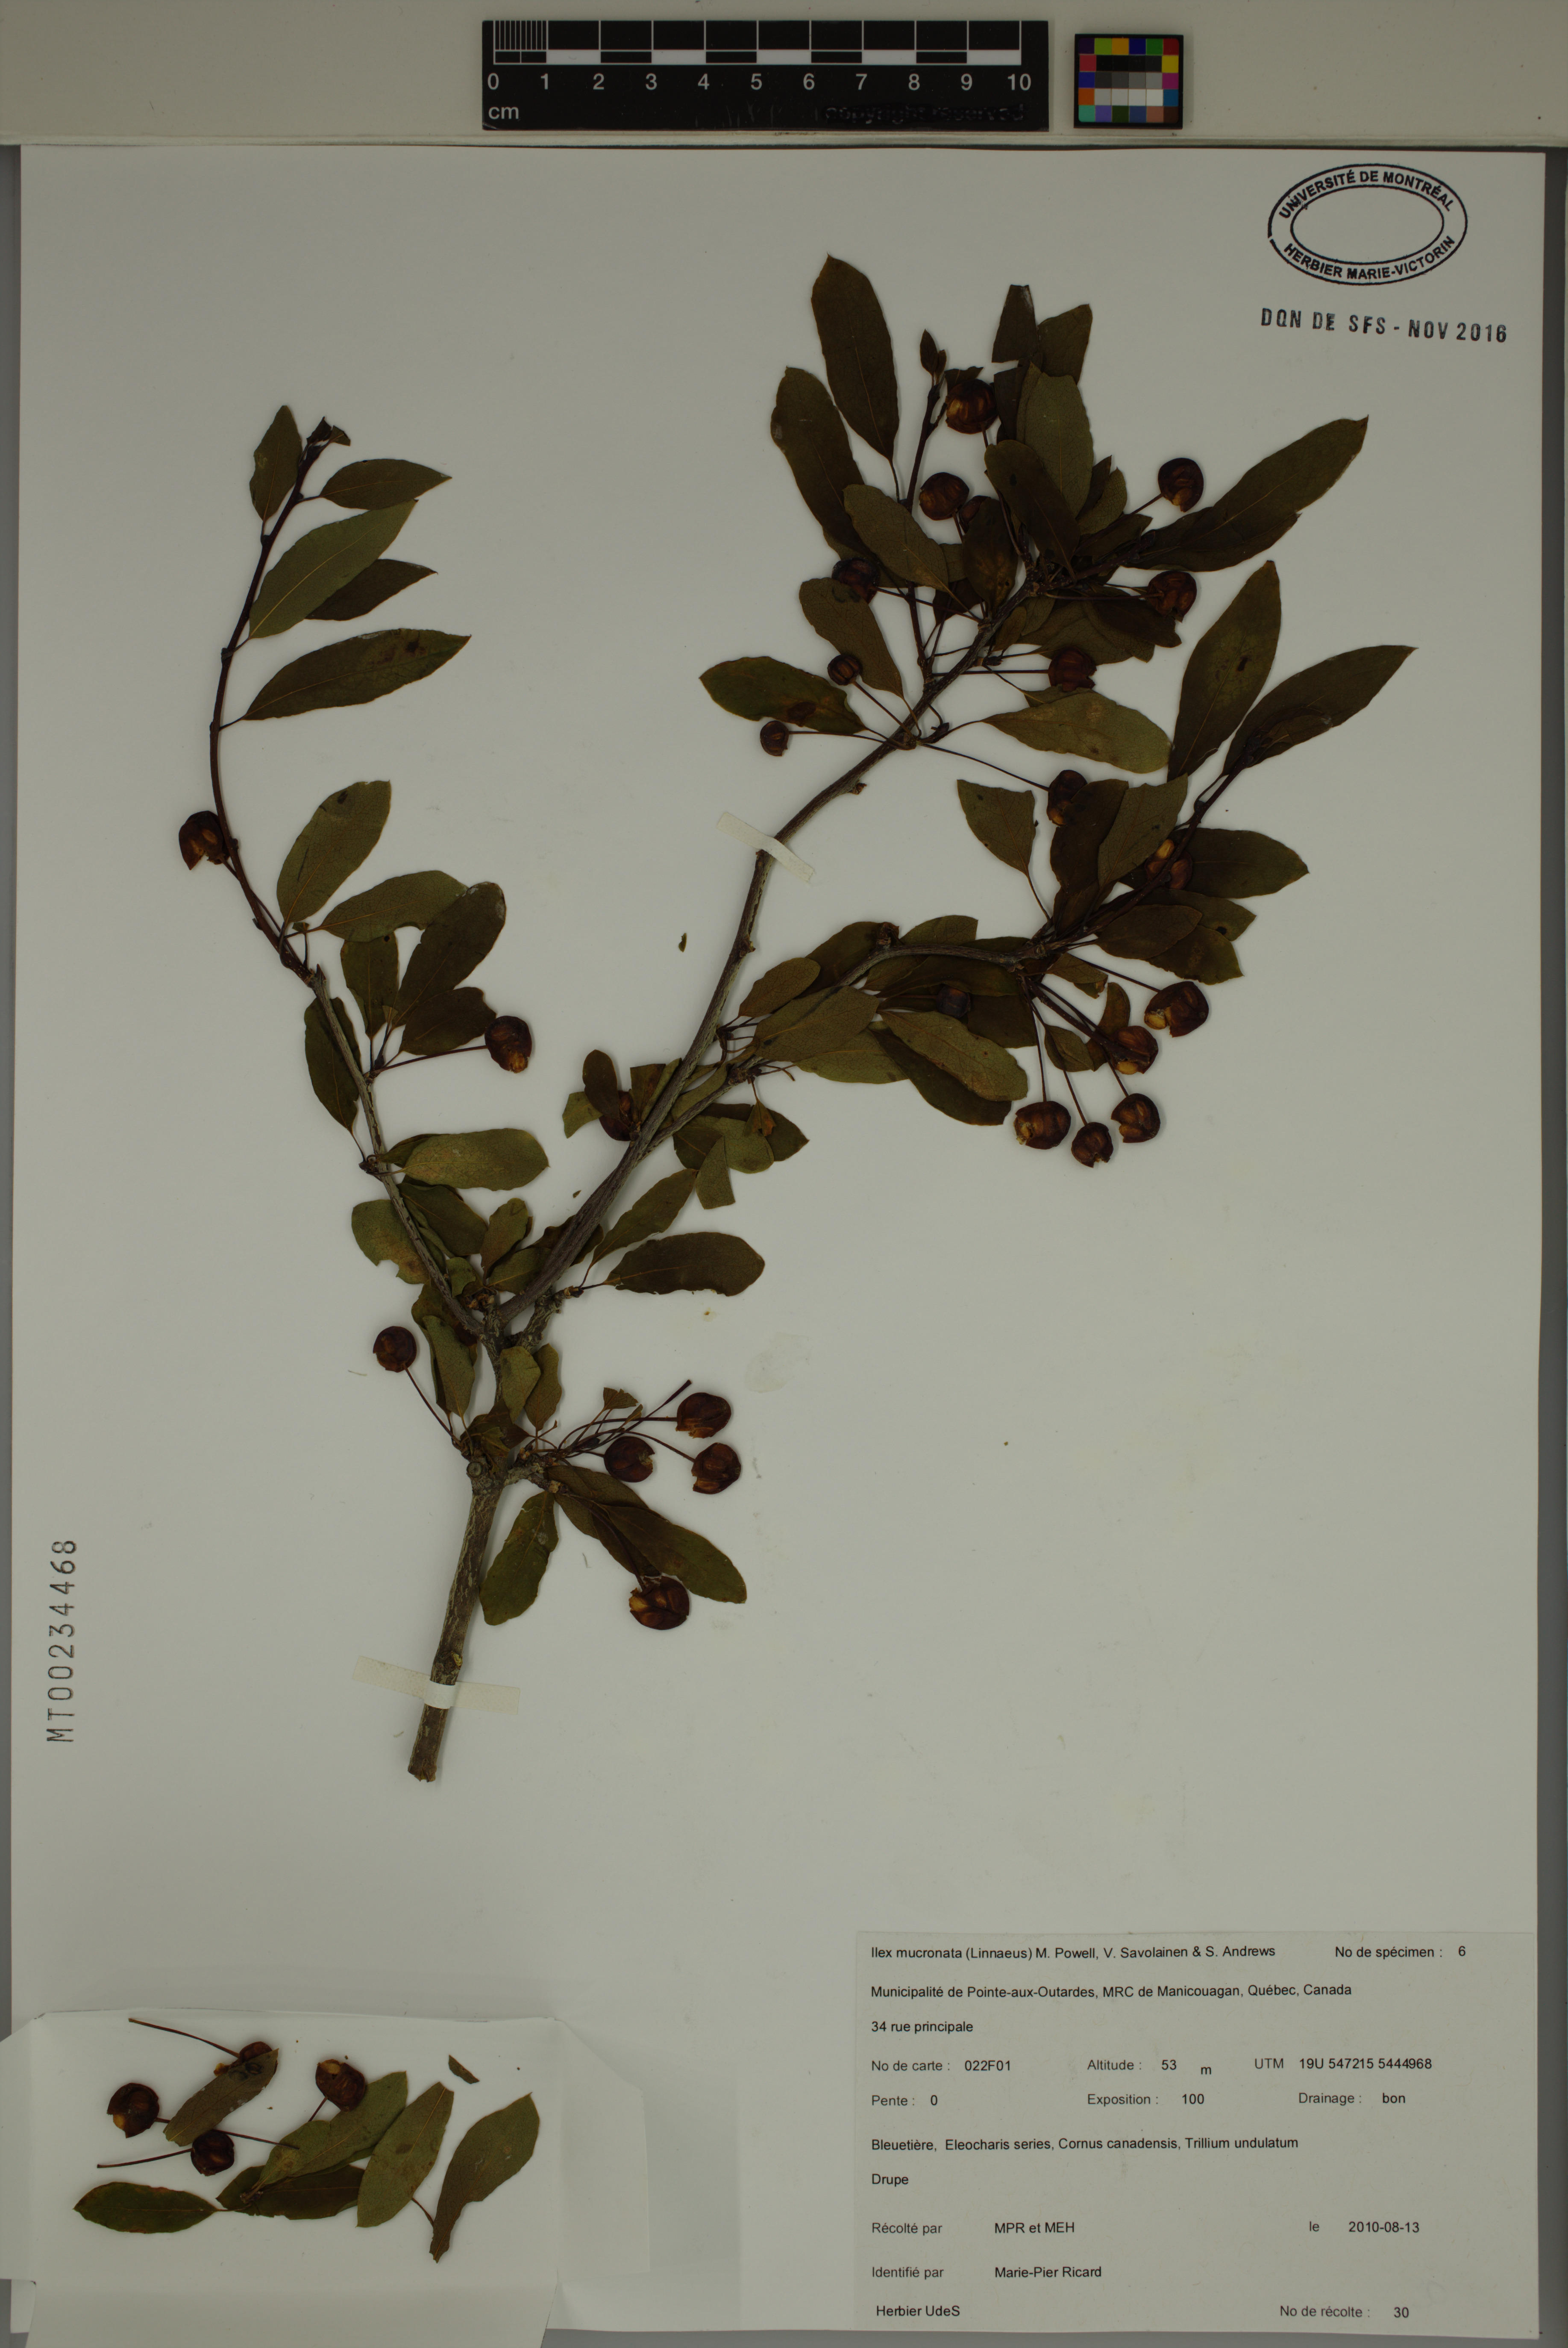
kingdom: Plantae
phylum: Tracheophyta
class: Magnoliopsida
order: Aquifoliales
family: Aquifoliaceae
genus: Ilex
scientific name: Ilex mucronata
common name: Catberry
